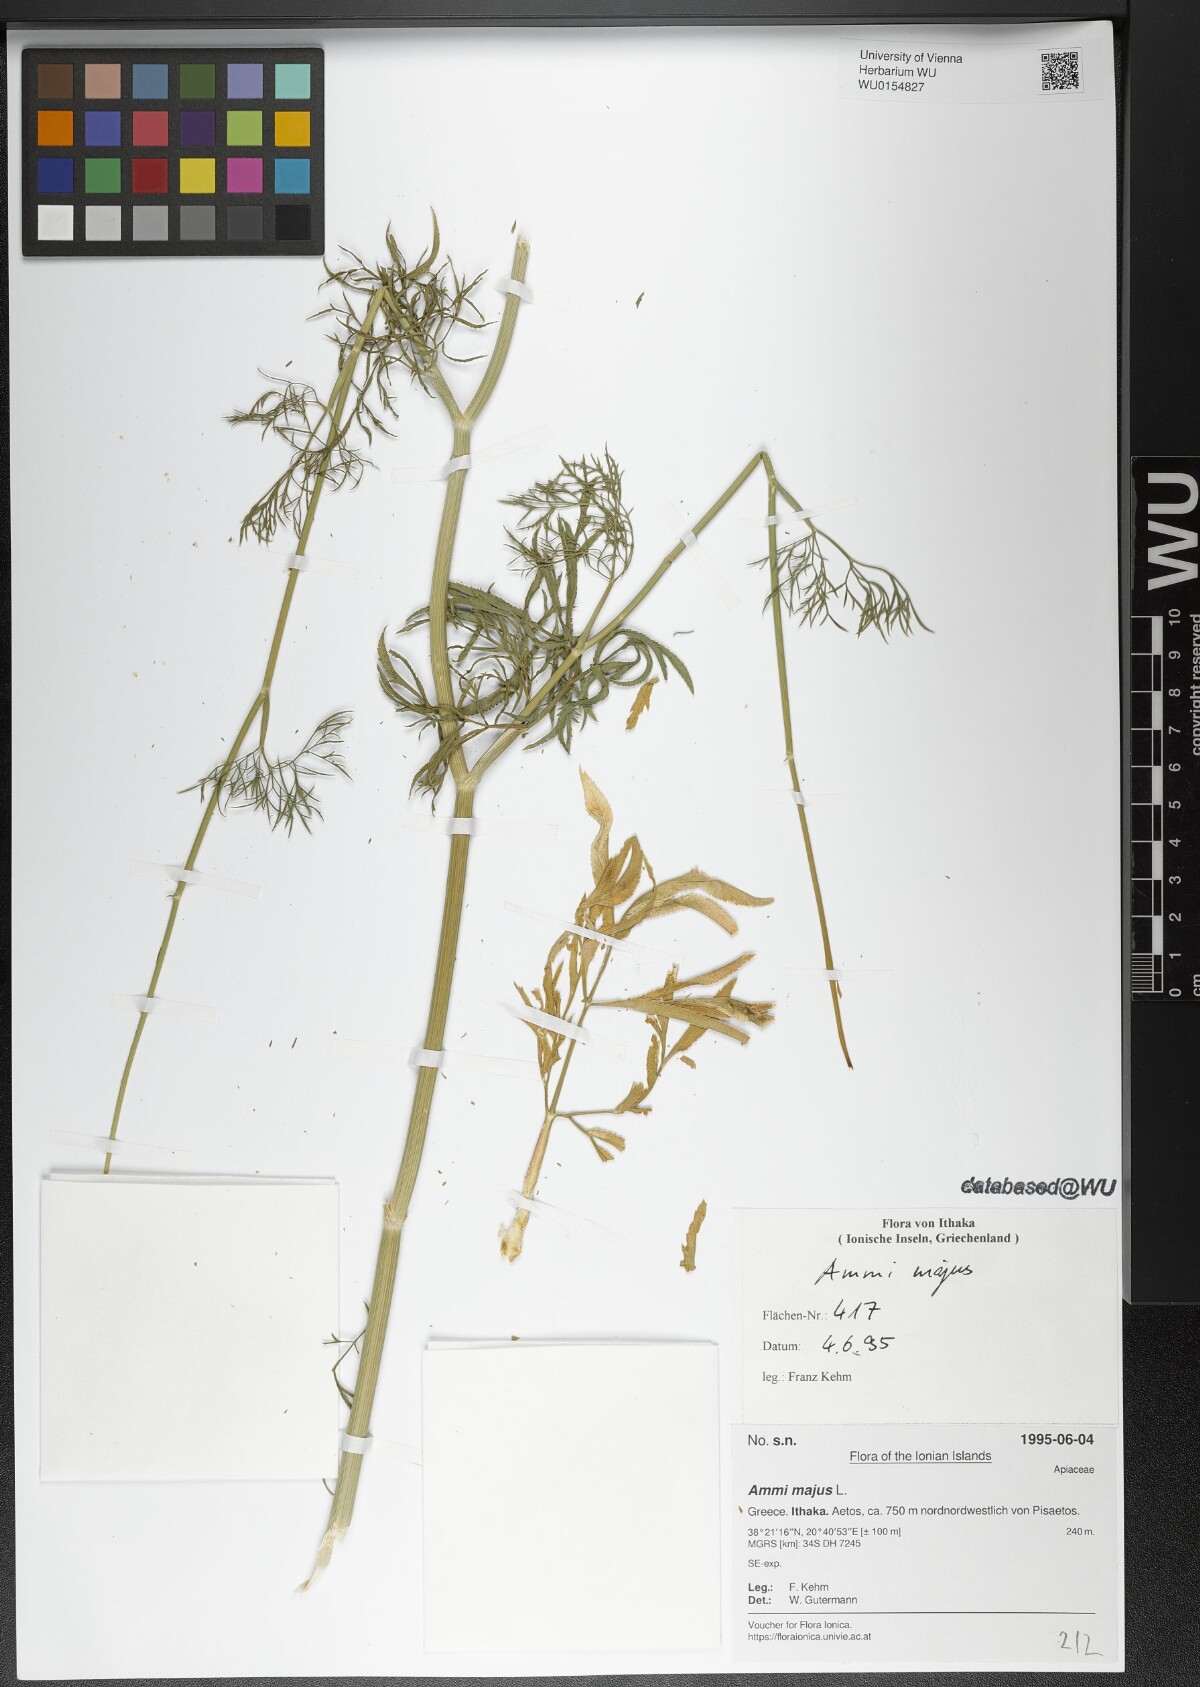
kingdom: Plantae
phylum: Tracheophyta
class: Magnoliopsida
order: Apiales
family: Apiaceae
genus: Ammi
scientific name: Ammi majus
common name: Bullwort
